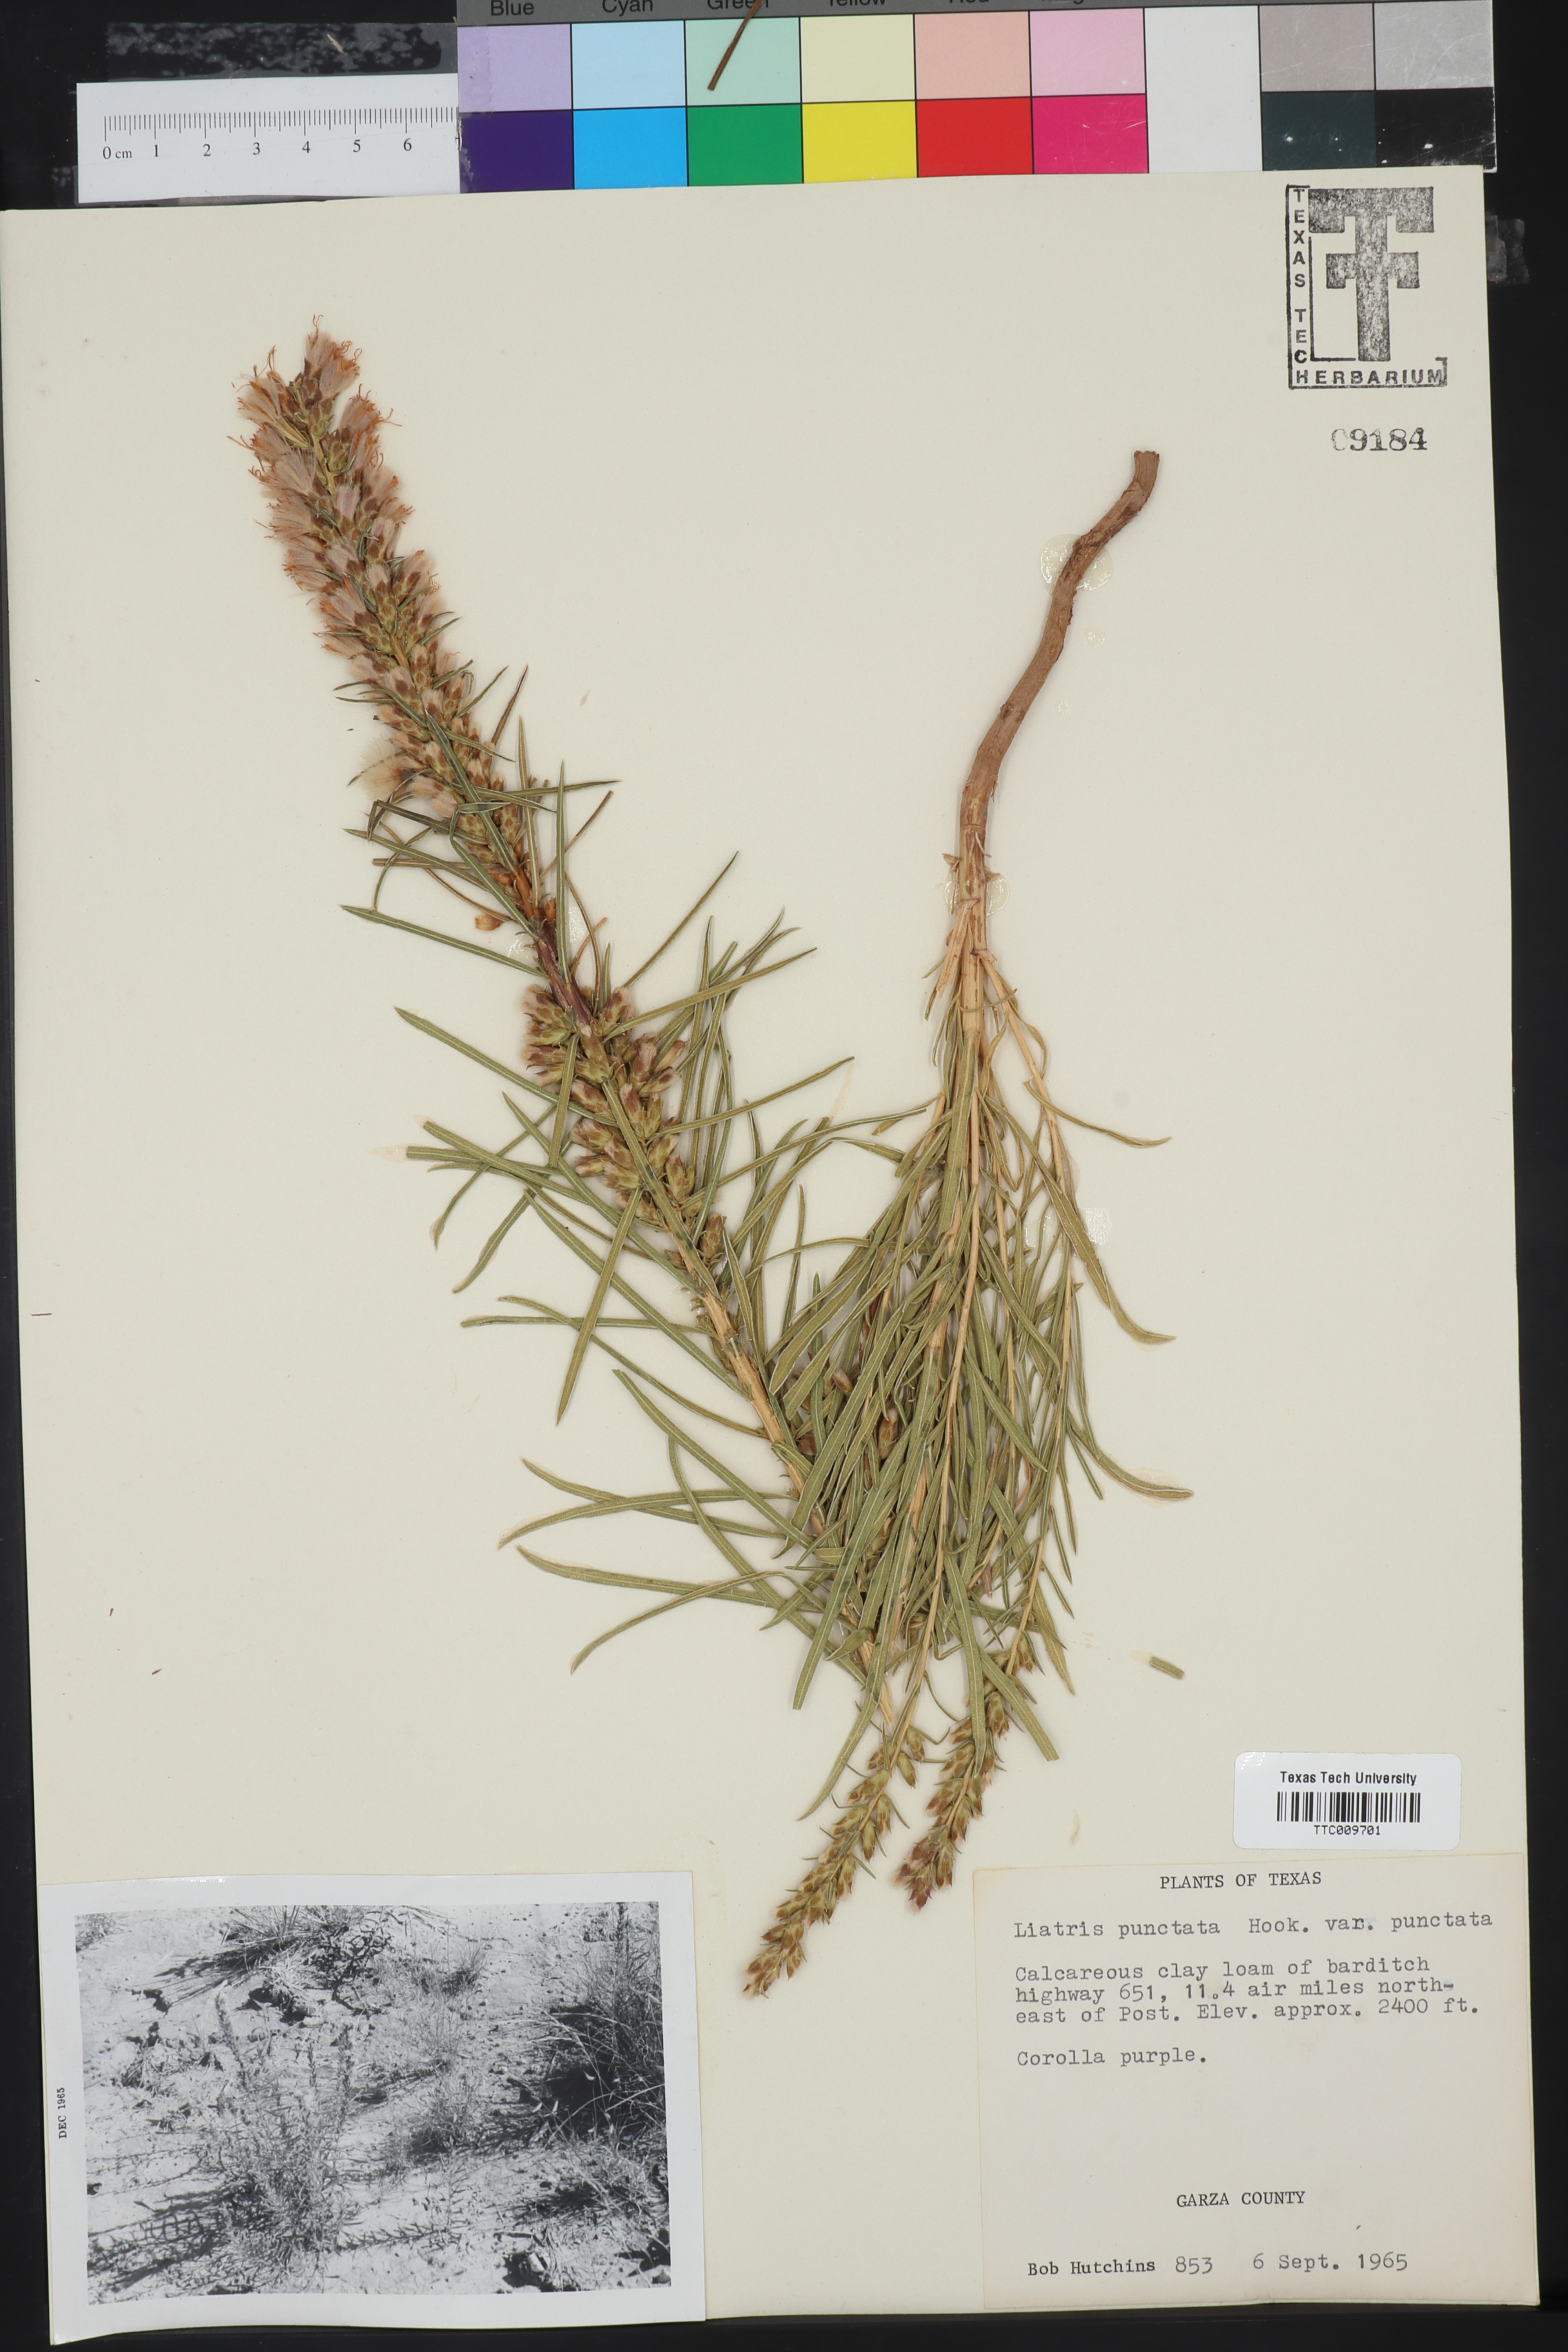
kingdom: Plantae
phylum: Tracheophyta
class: Magnoliopsida
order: Asterales
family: Asteraceae
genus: Liatris
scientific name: Liatris punctata
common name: Dotted gayfeather
